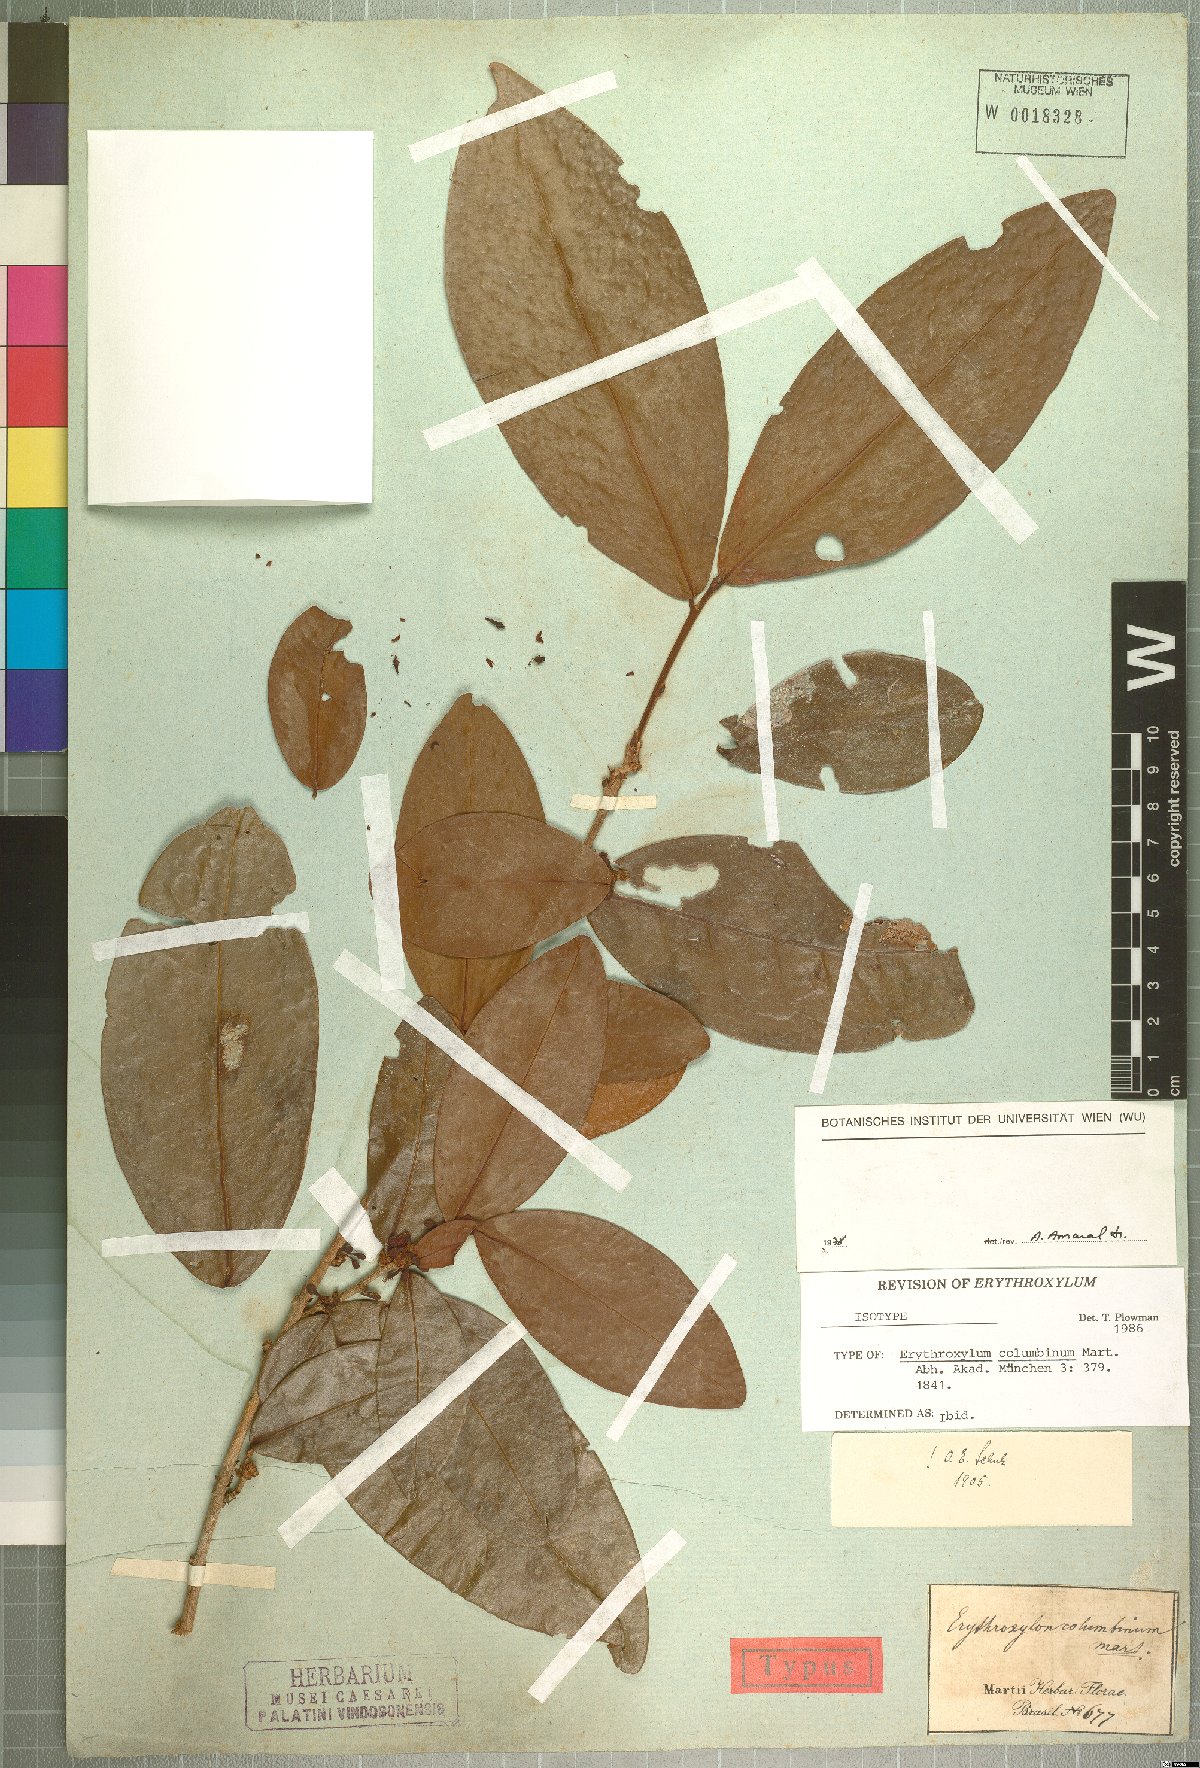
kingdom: Plantae
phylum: Tracheophyta
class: Magnoliopsida
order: Malpighiales
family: Erythroxylaceae
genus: Erythroxylum
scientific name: Erythroxylum columbinum
